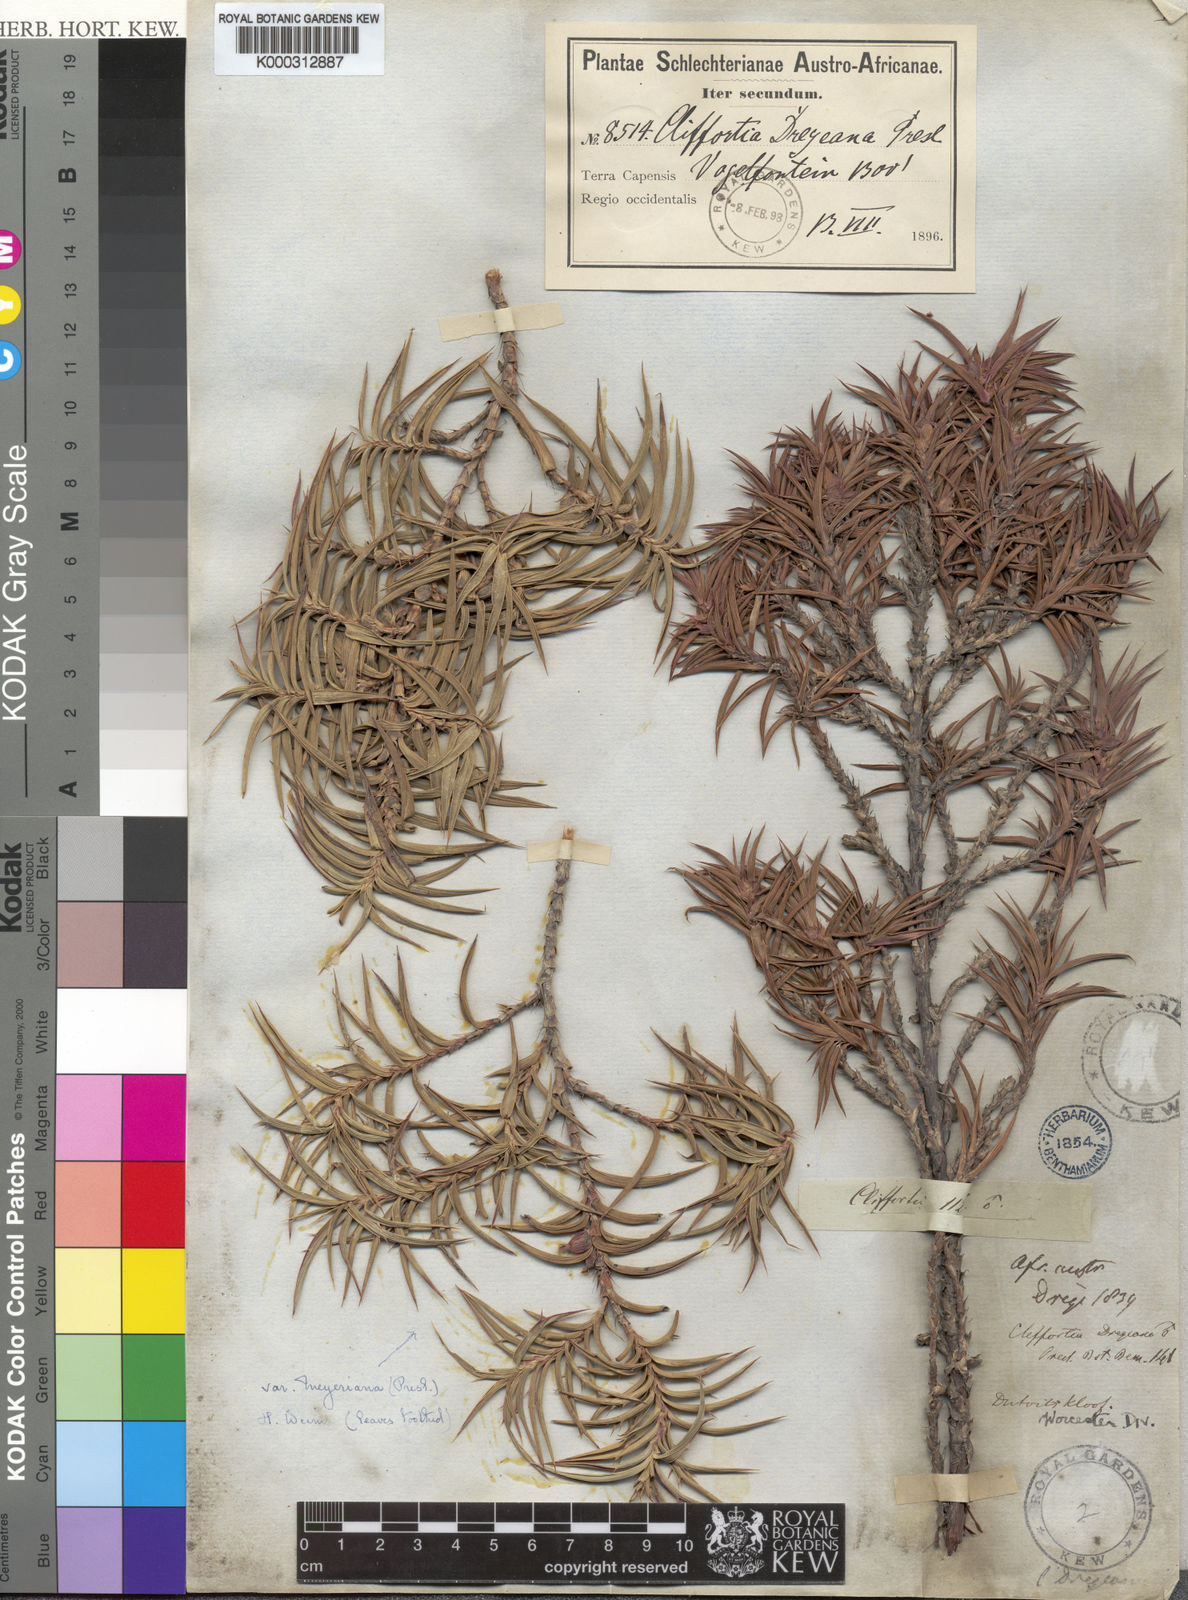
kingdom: Plantae
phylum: Tracheophyta
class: Magnoliopsida
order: Rosales
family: Rosaceae
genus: Cliffortia
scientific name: Cliffortia dregeana
